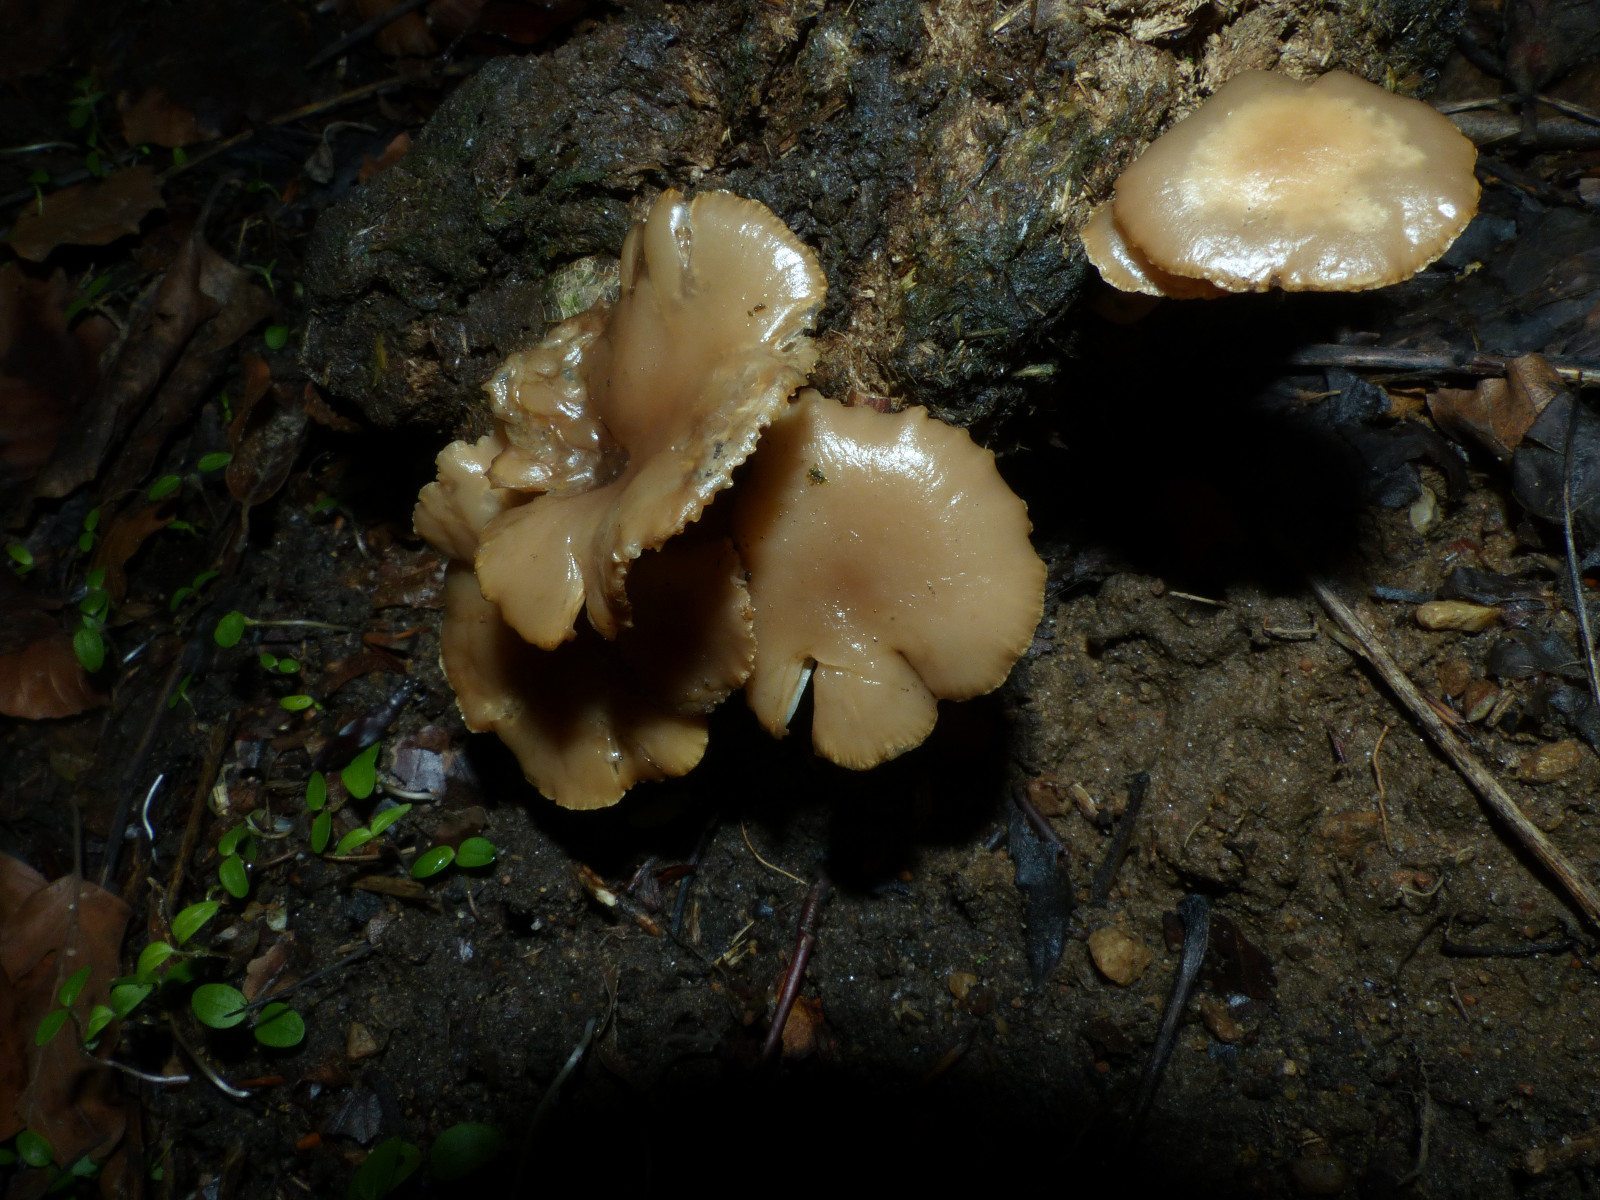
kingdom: Fungi
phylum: Basidiomycota
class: Agaricomycetes
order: Agaricales
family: Tricholomataceae
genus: Clitocybe
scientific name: Clitocybe
